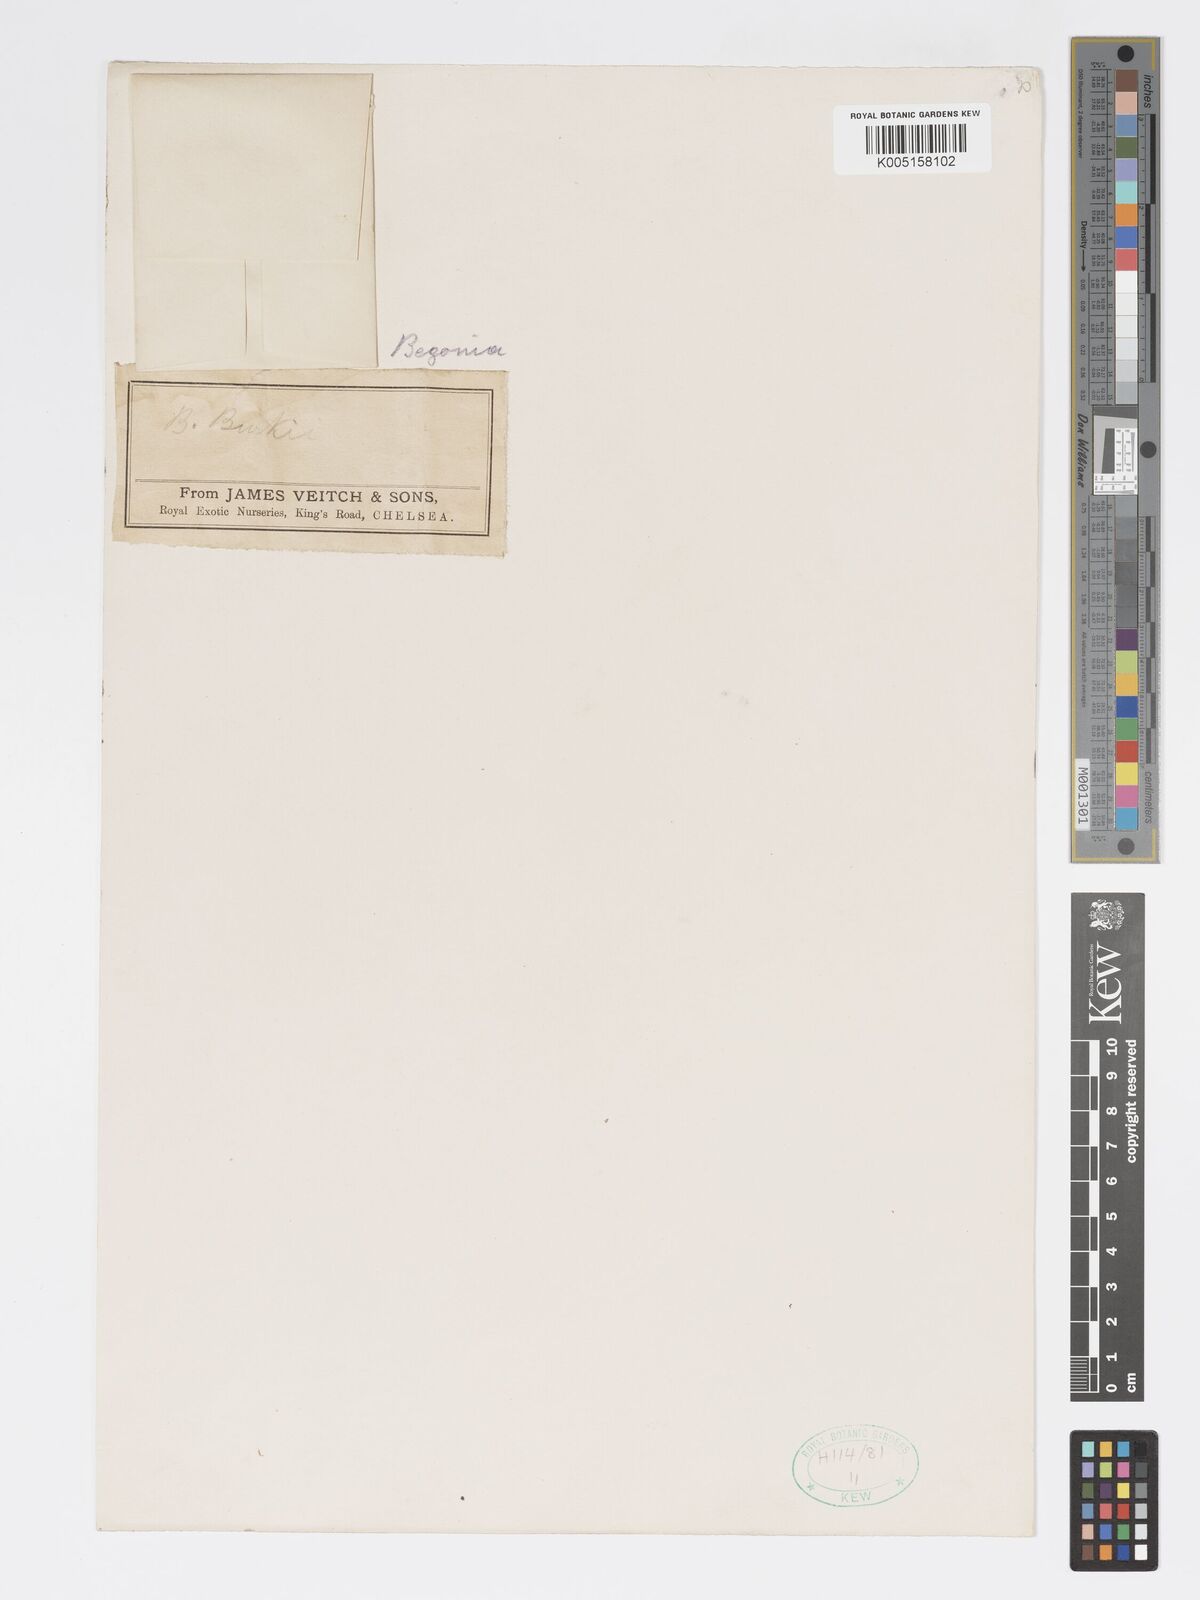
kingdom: Plantae
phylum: Tracheophyta
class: Magnoliopsida
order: Cucurbitales
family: Begoniaceae
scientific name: Begoniaceae
